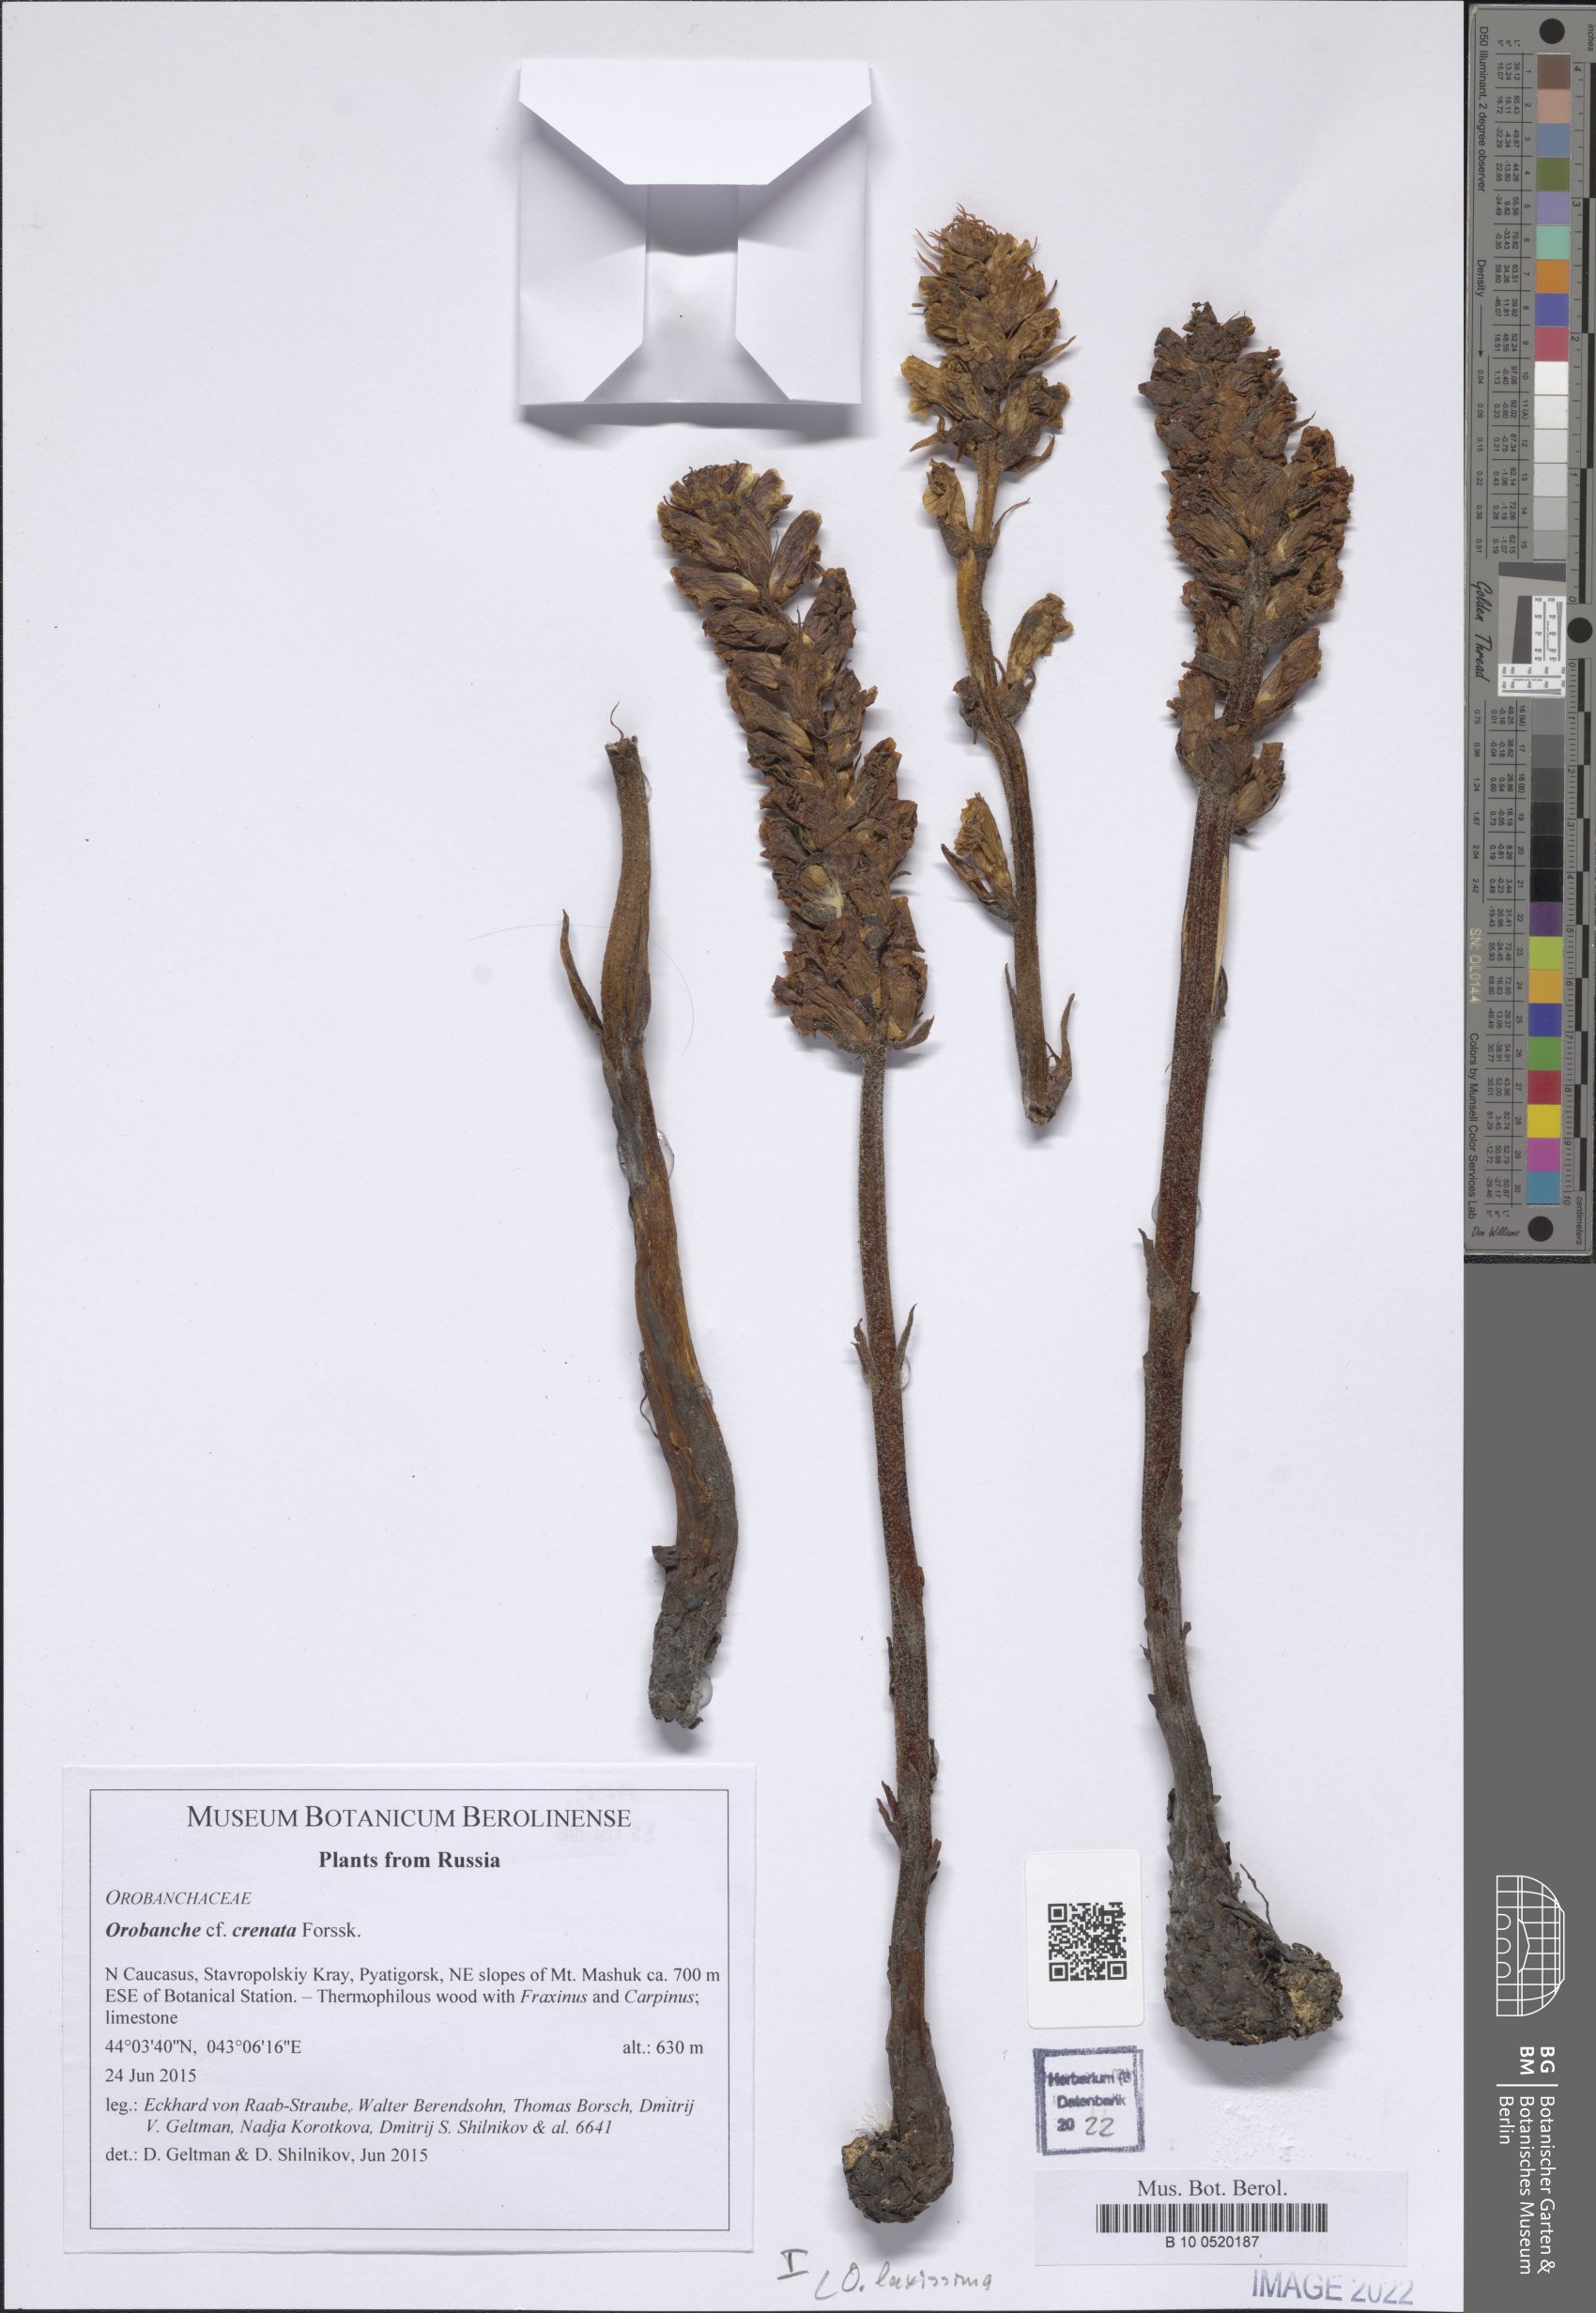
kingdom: Plantae
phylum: Tracheophyta
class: Magnoliopsida
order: Lamiales
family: Orobanchaceae
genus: Orobanche
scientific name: Orobanche laxissima
